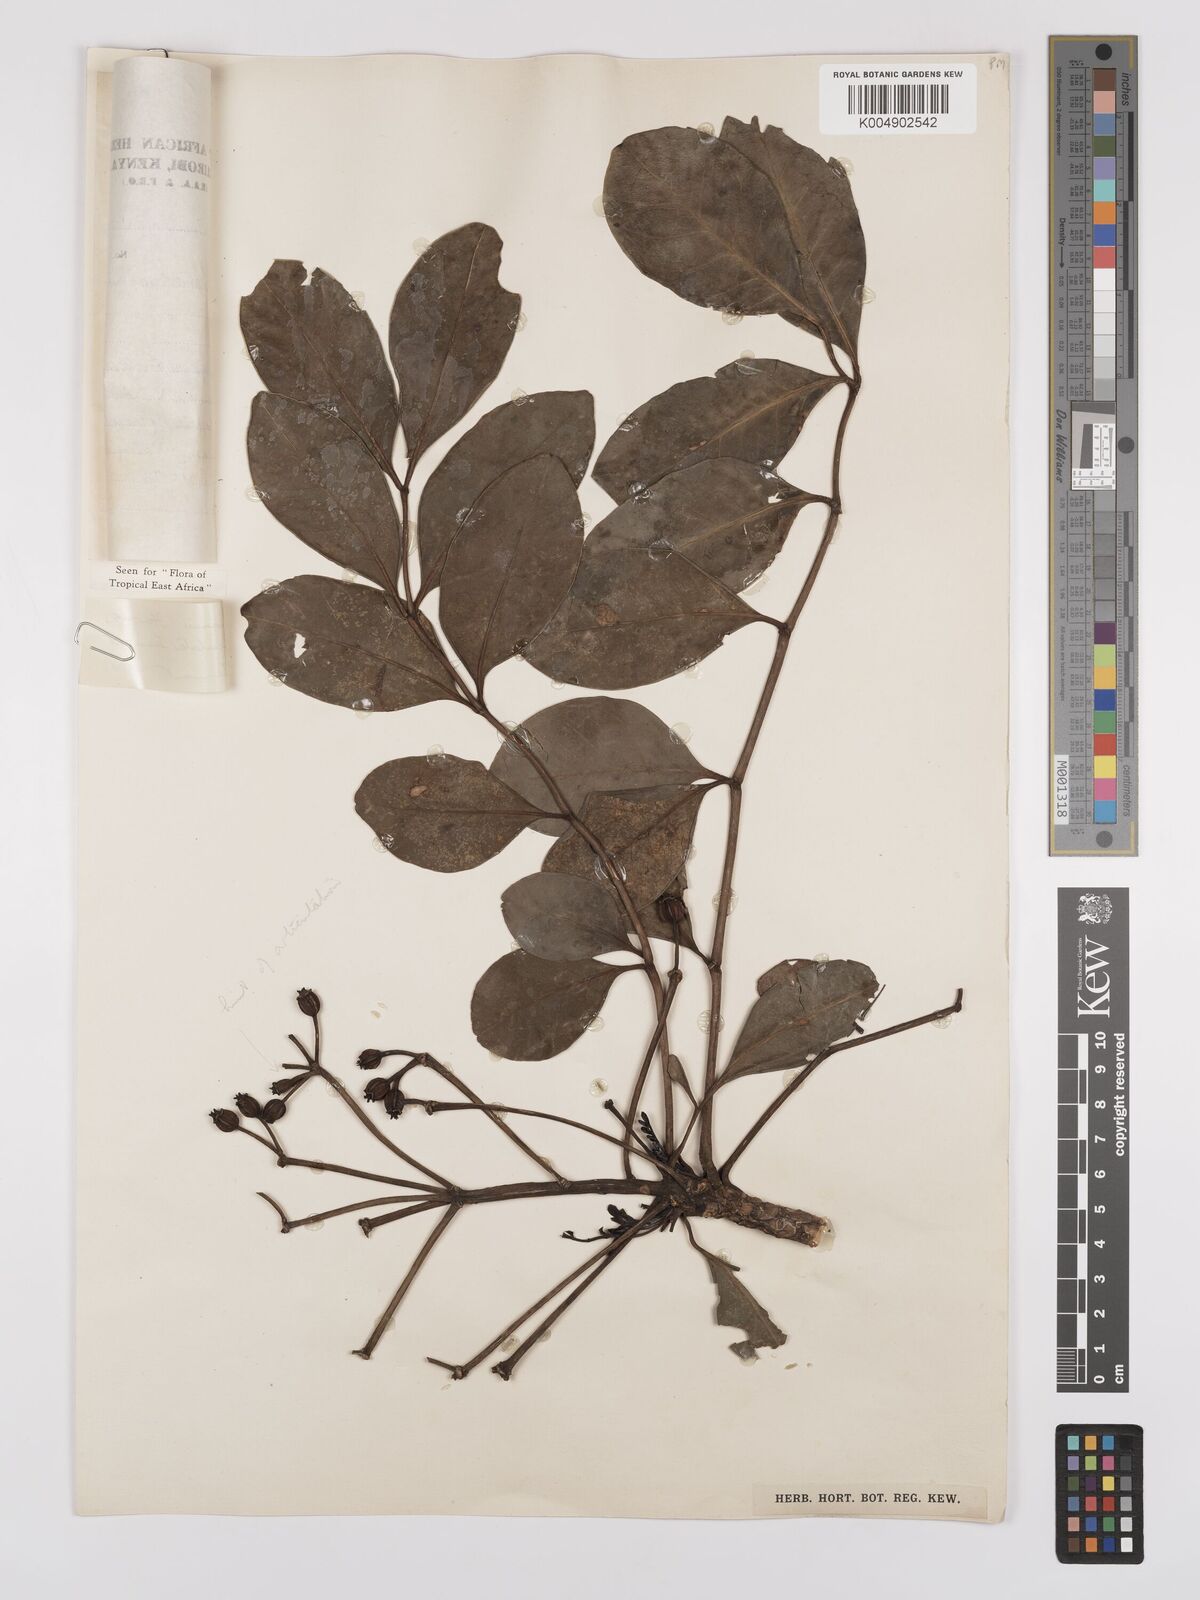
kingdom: Plantae
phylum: Tracheophyta
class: Magnoliopsida
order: Apiales
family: Araliaceae
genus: Polyscias
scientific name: Polyscias stuhlmannii
